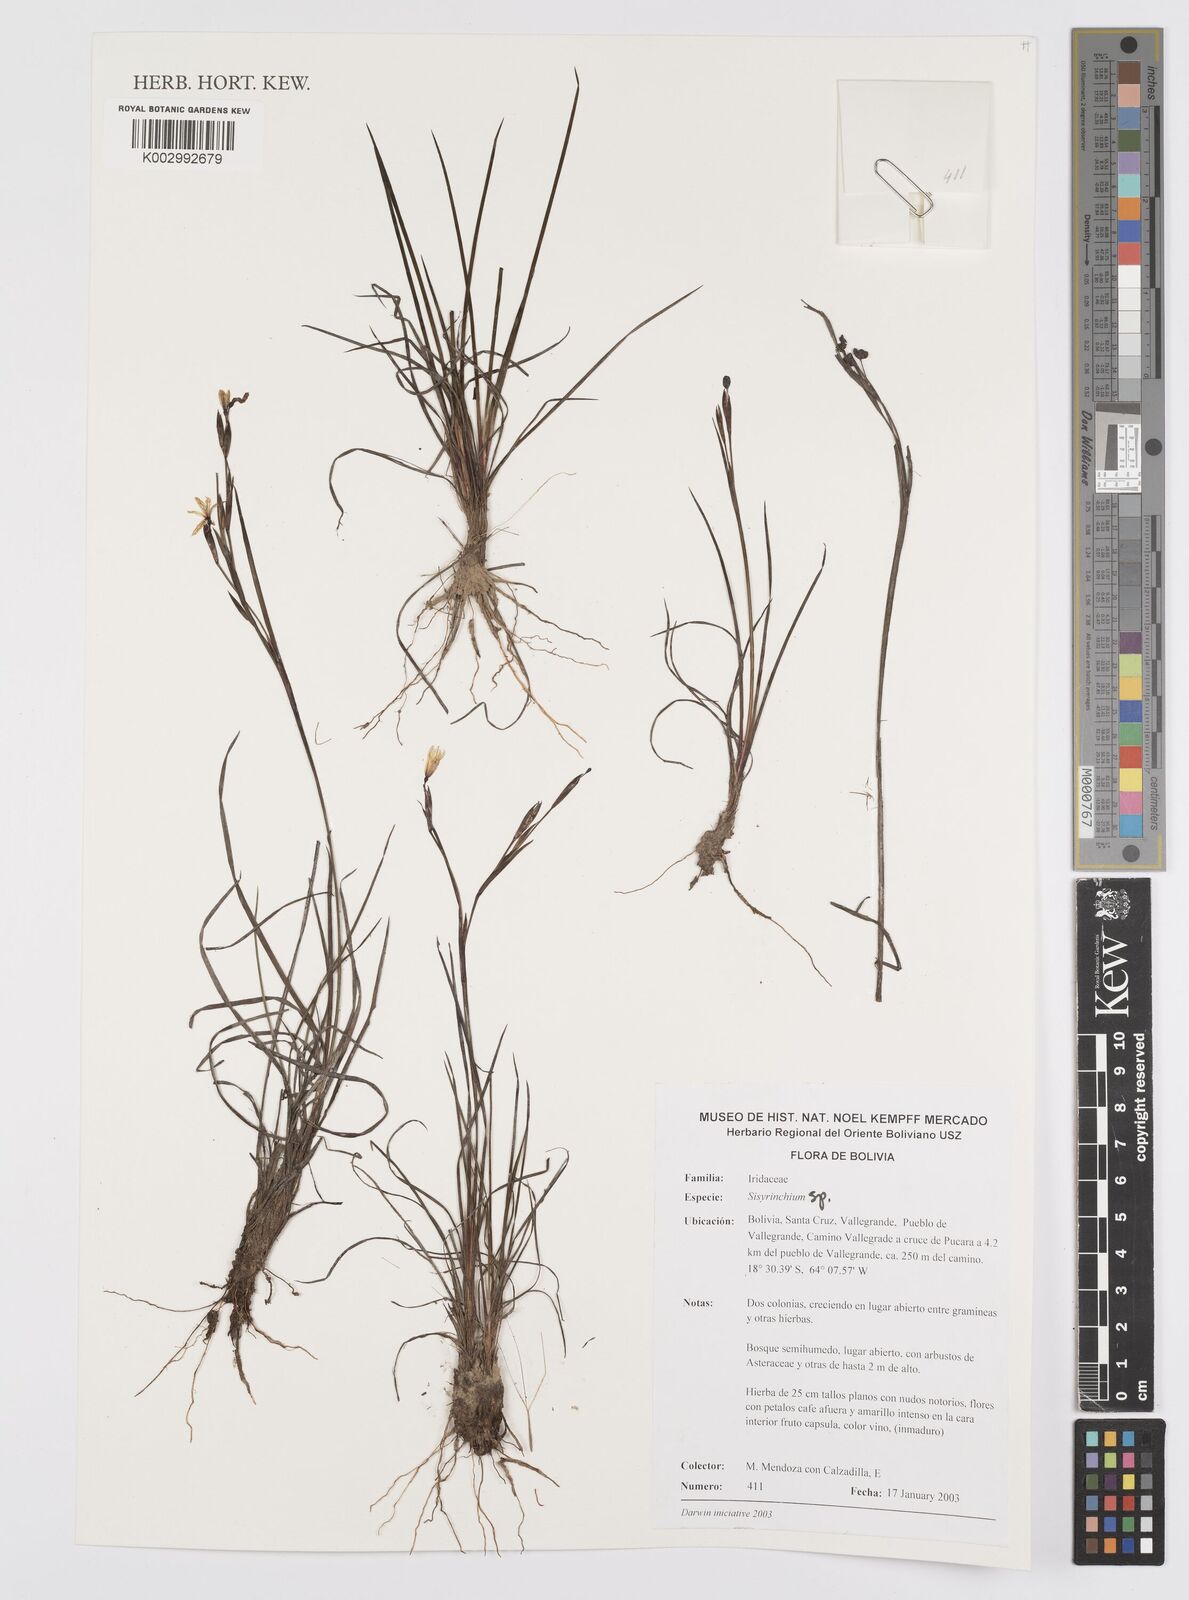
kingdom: Plantae
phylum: Tracheophyta
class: Liliopsida
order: Asparagales
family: Iridaceae
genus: Sisyrinchium
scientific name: Sisyrinchium
